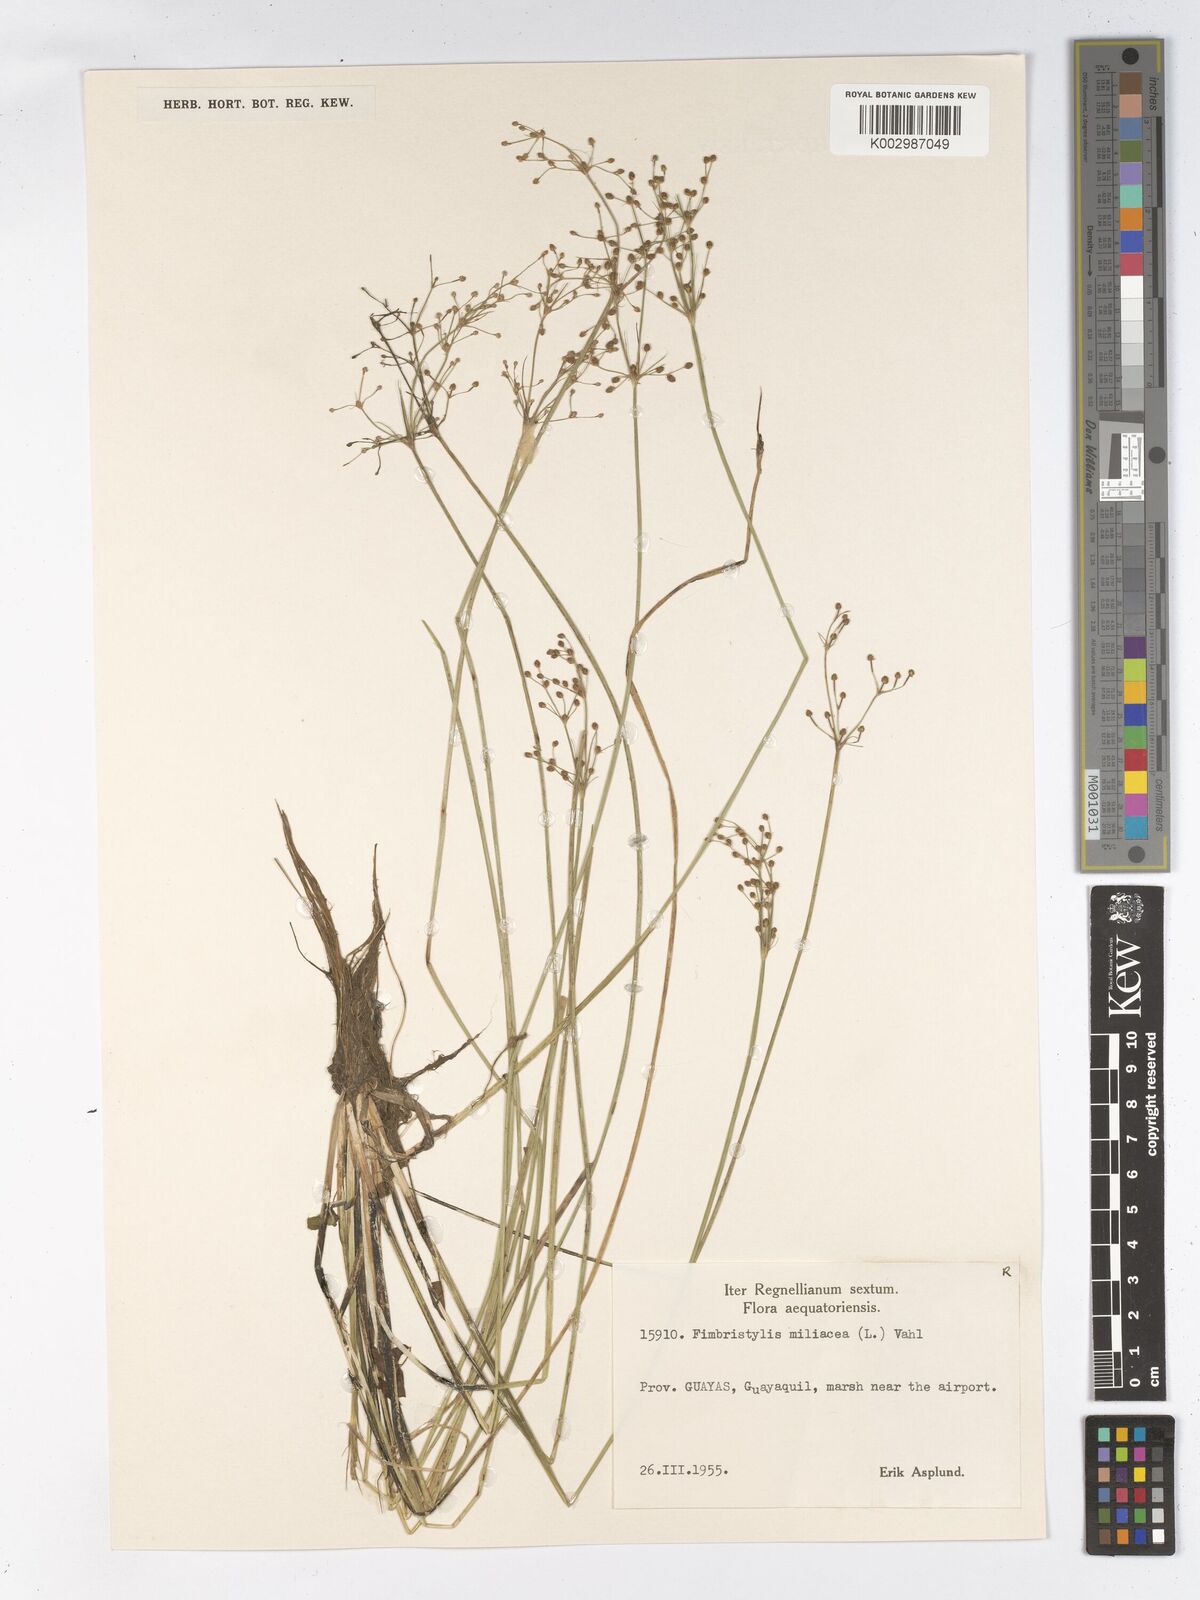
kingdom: Plantae
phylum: Tracheophyta
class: Liliopsida
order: Poales
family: Cyperaceae
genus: Fimbristylis
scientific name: Fimbristylis littoralis
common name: Fimbry
